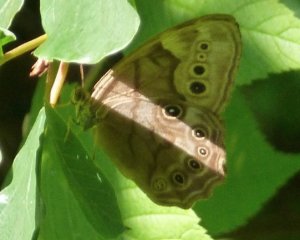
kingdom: Animalia
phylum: Arthropoda
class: Insecta
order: Lepidoptera
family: Nymphalidae
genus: Lethe
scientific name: Lethe anthedon
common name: Northern Pearly-Eye
